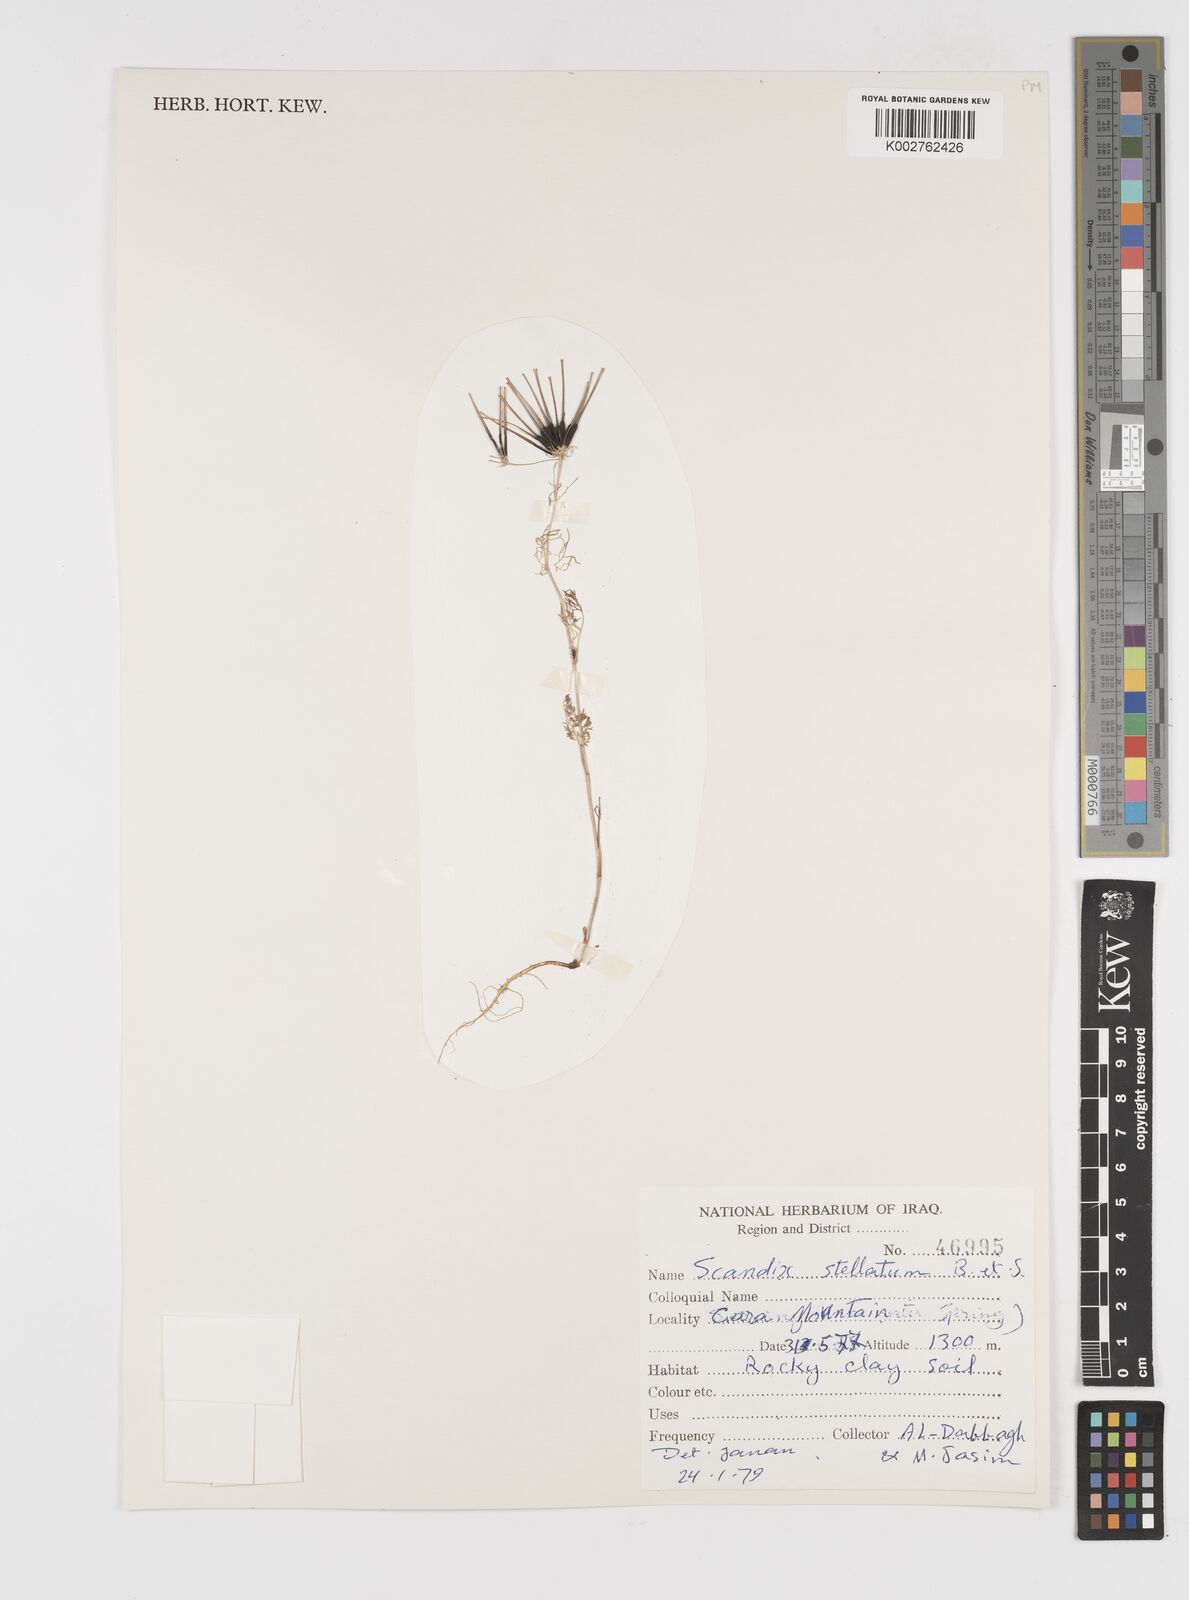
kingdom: Plantae
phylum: Tracheophyta
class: Magnoliopsida
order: Apiales
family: Apiaceae
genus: Scandix
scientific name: Scandix stellata
